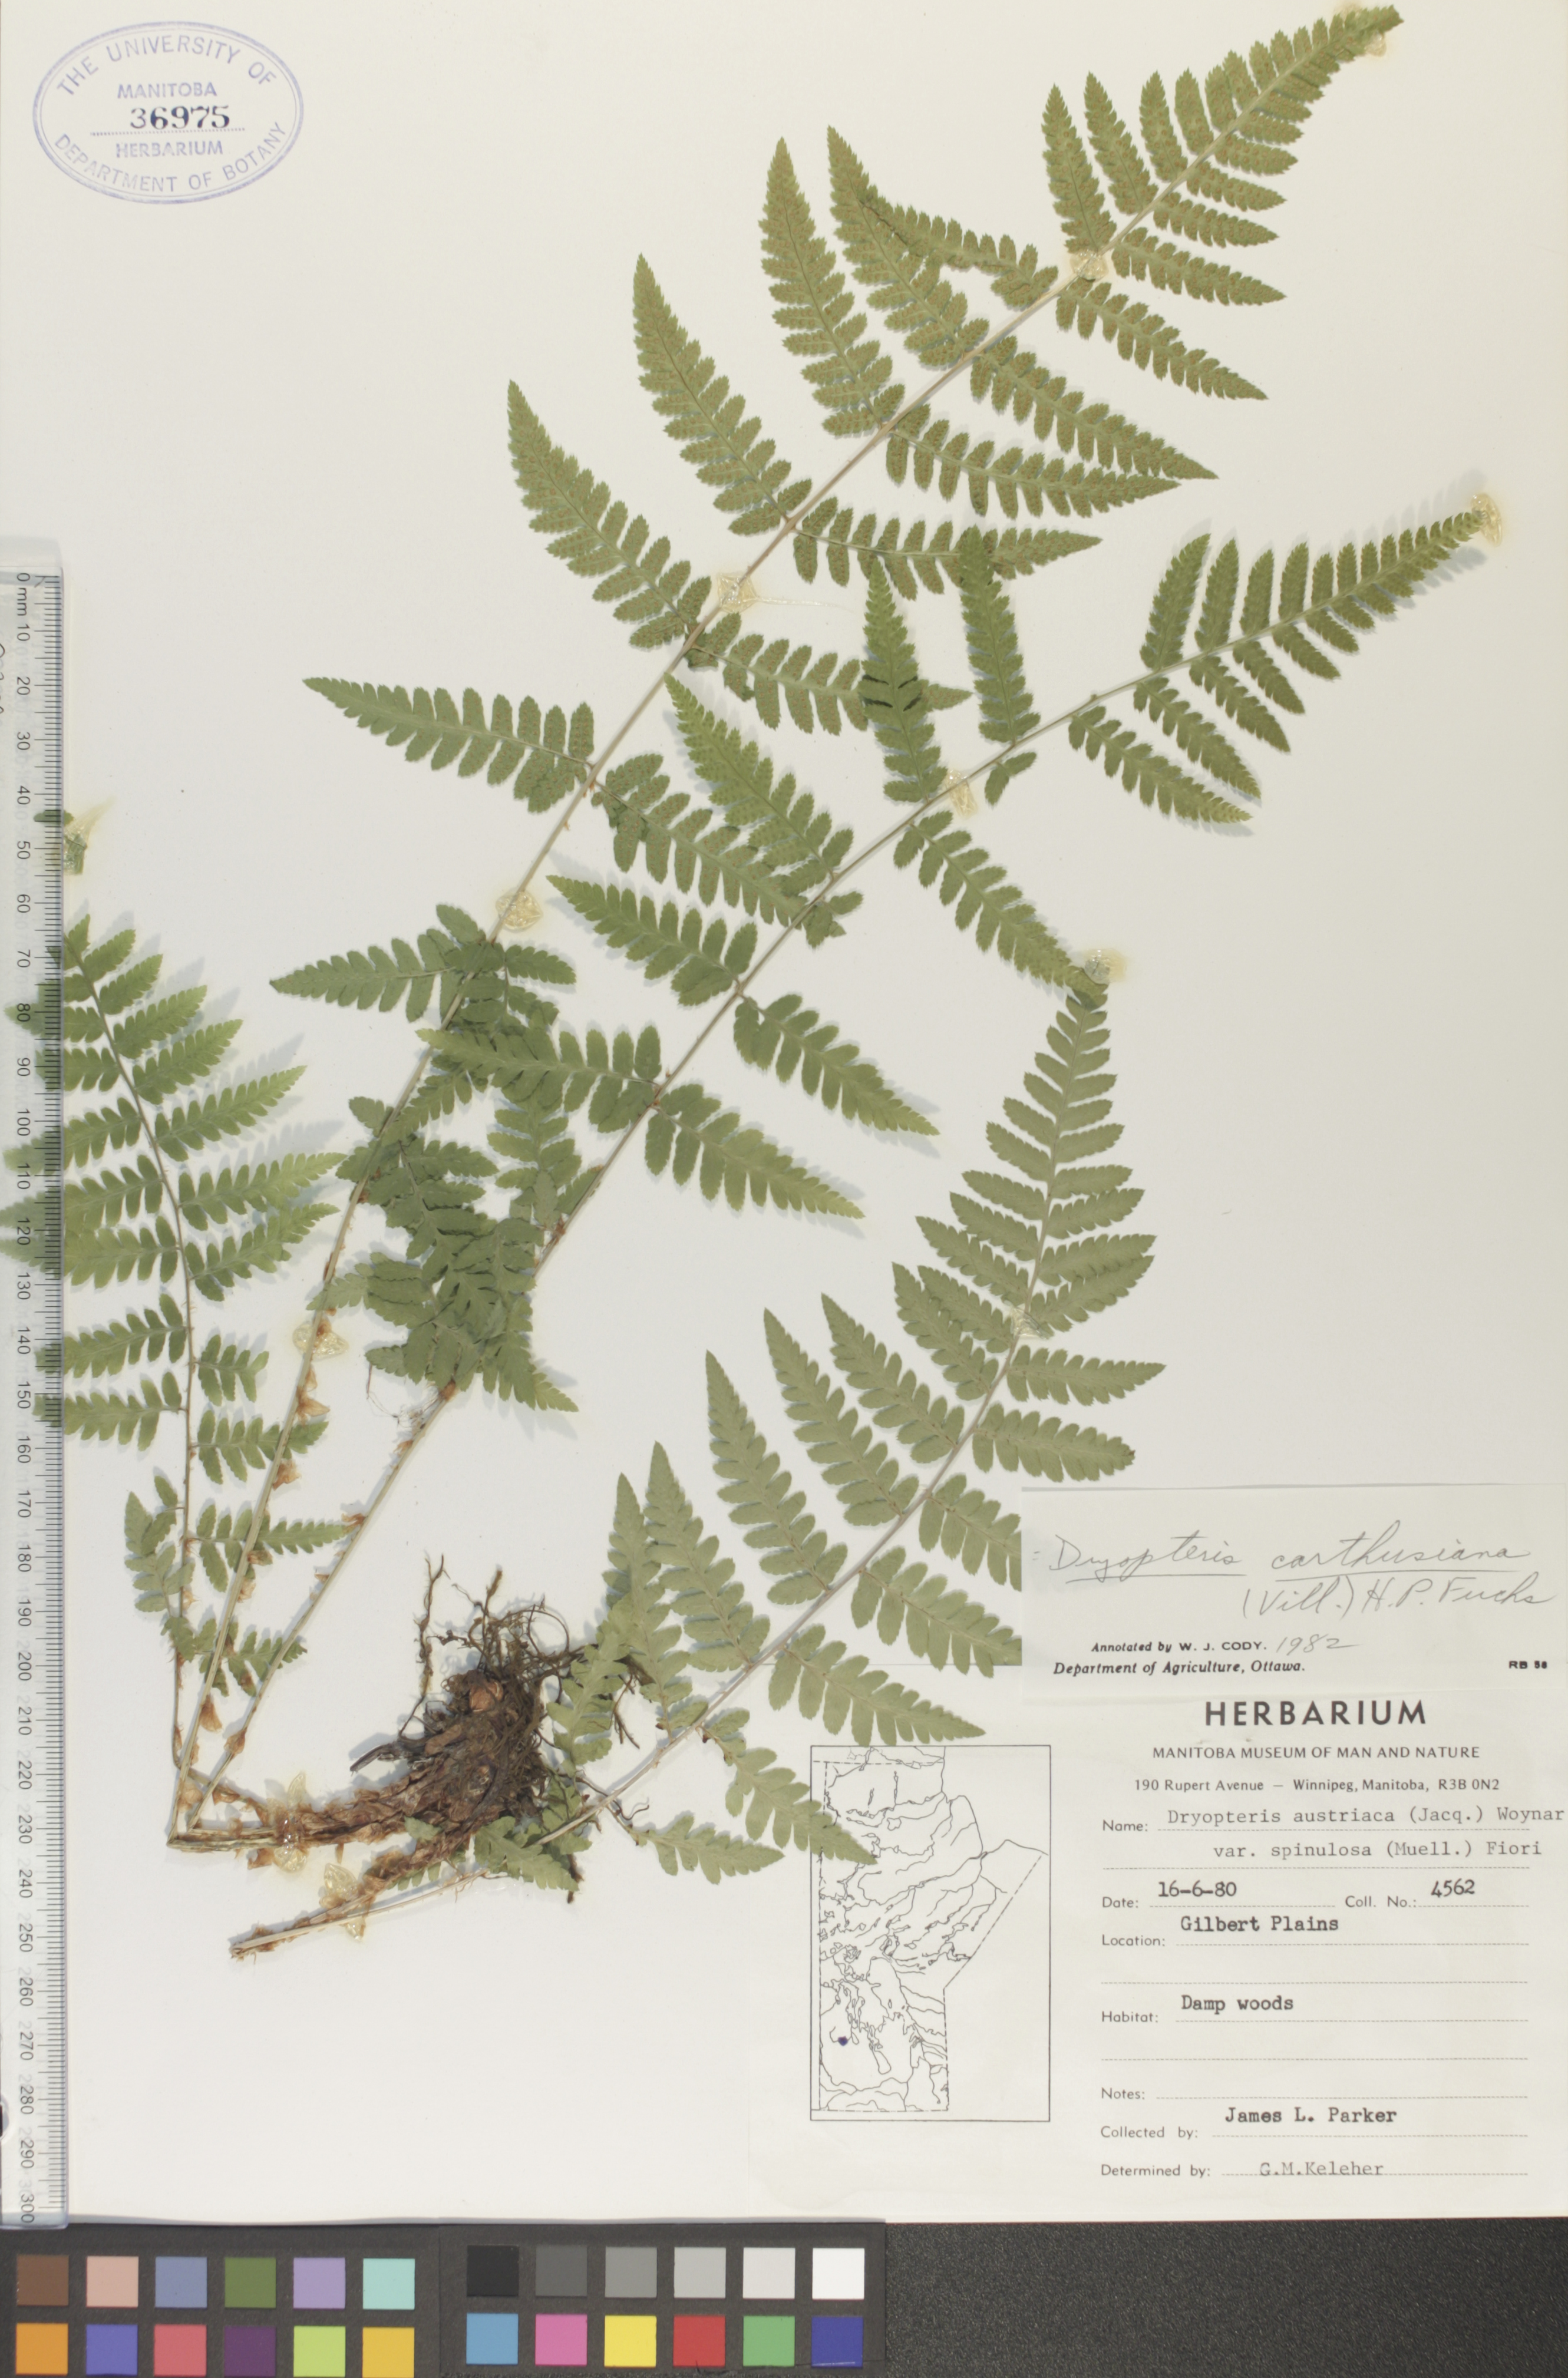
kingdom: Plantae
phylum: Tracheophyta
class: Polypodiopsida
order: Polypodiales
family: Dryopteridaceae
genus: Dryopteris
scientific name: Dryopteris carthusiana
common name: Narrow buckler-fern
